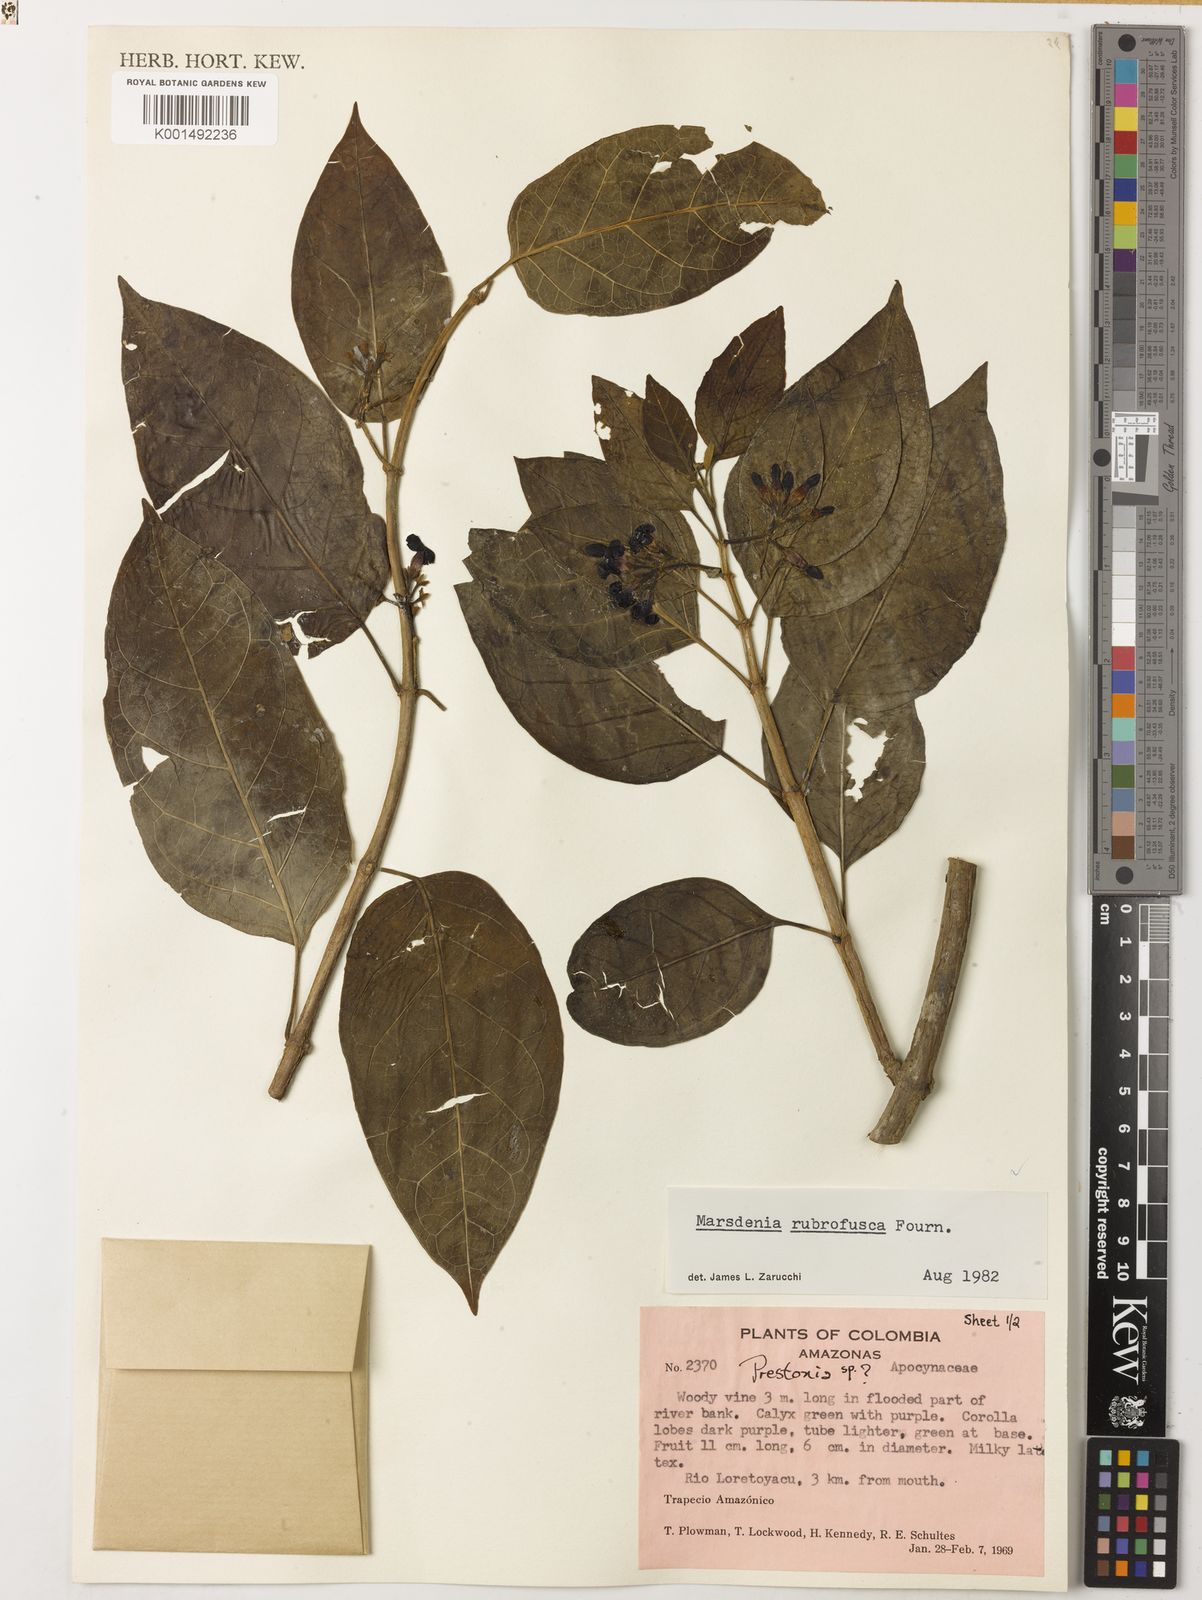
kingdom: Plantae
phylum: Tracheophyta
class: Magnoliopsida
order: Gentianales
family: Apocynaceae
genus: Ruehssia
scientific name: Ruehssia rubrofusca
